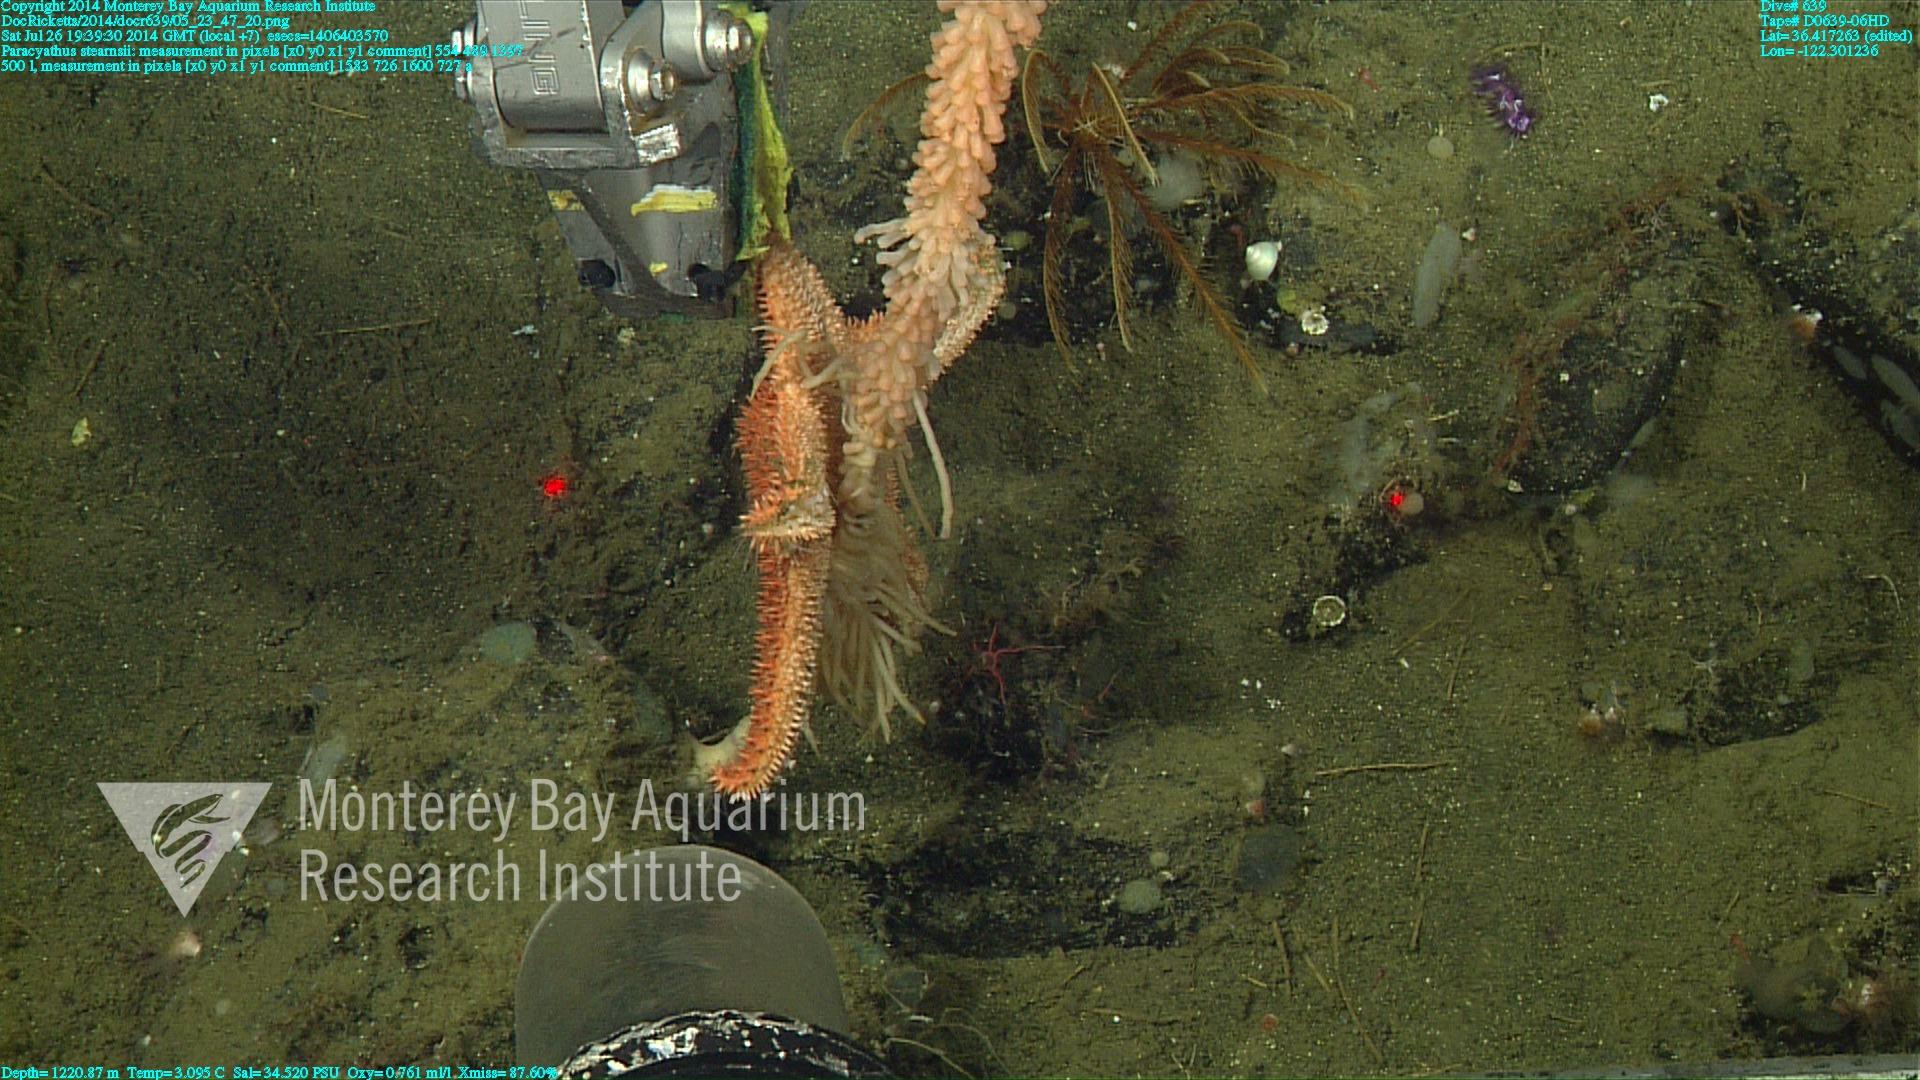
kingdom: Animalia
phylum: Cnidaria
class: Anthozoa
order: Scleractinia
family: Caryophylliidae
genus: Paracyathus
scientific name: Paracyathus stearnsii
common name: Brown stony coral
